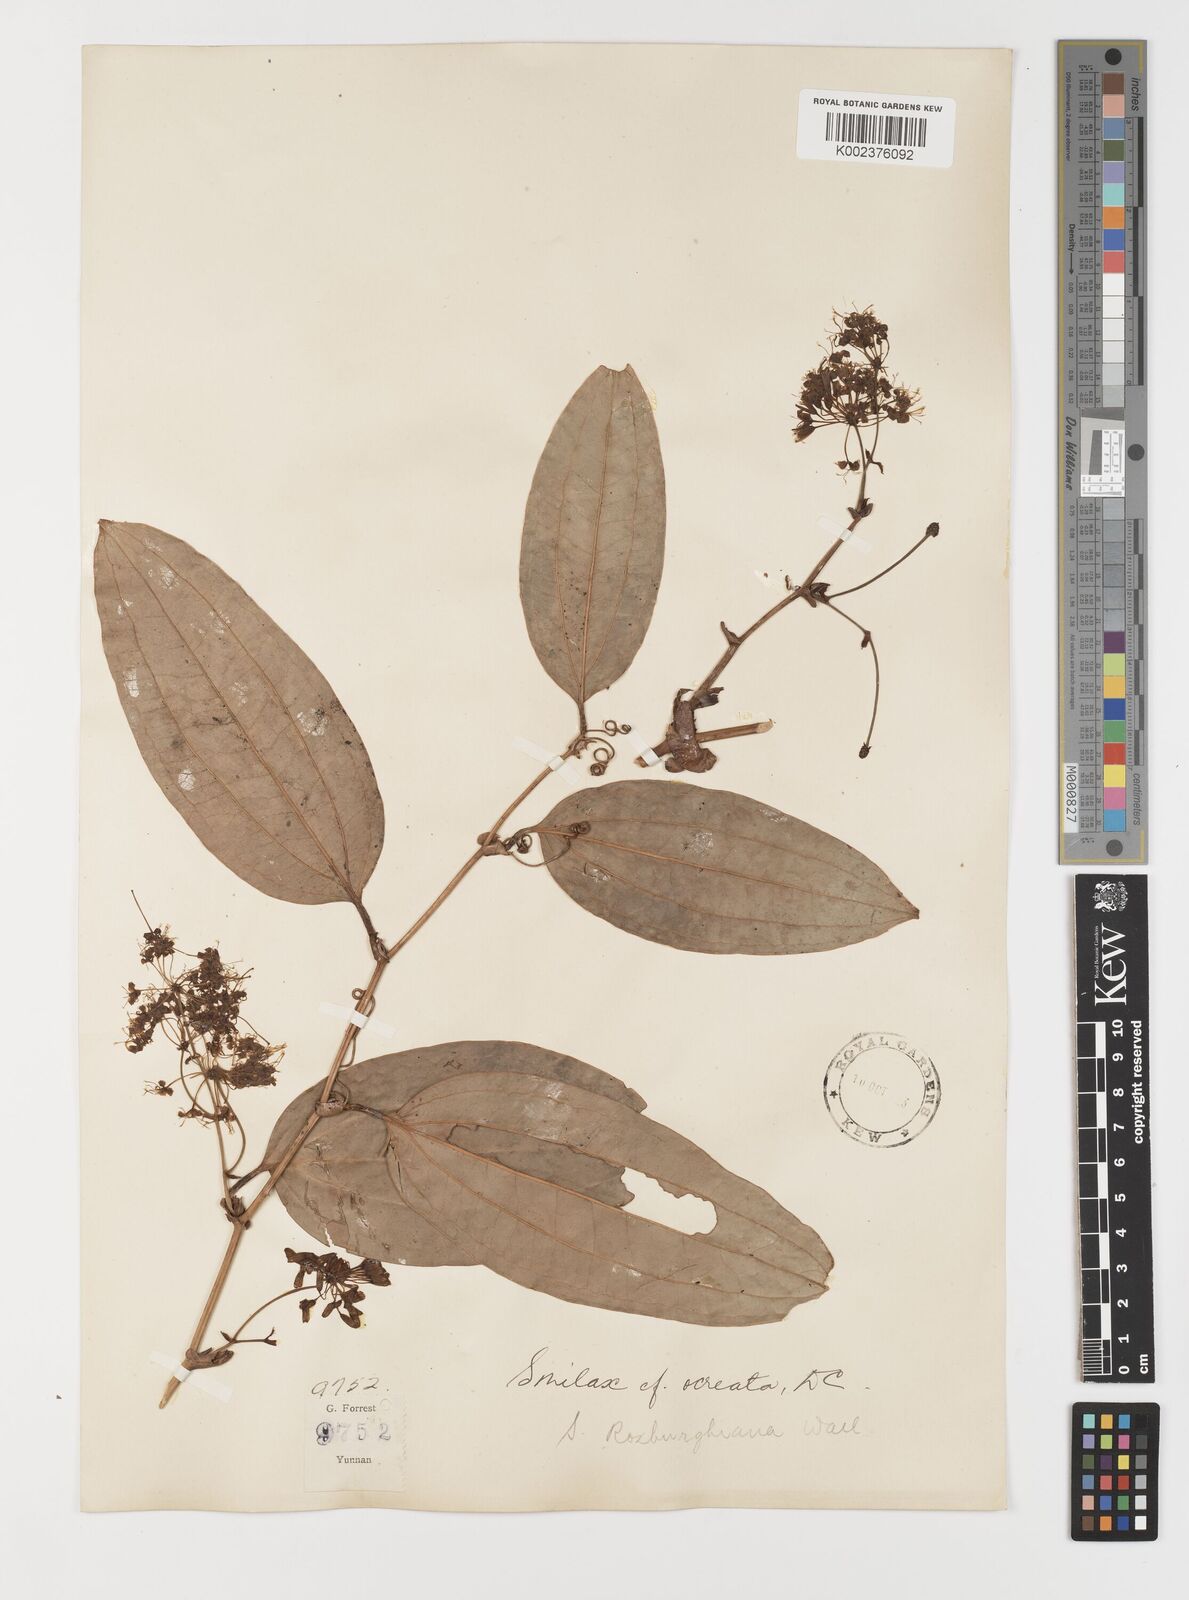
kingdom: Plantae
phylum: Tracheophyta
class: Liliopsida
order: Liliales
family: Smilacaceae
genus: Smilax
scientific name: Smilax ocreata
